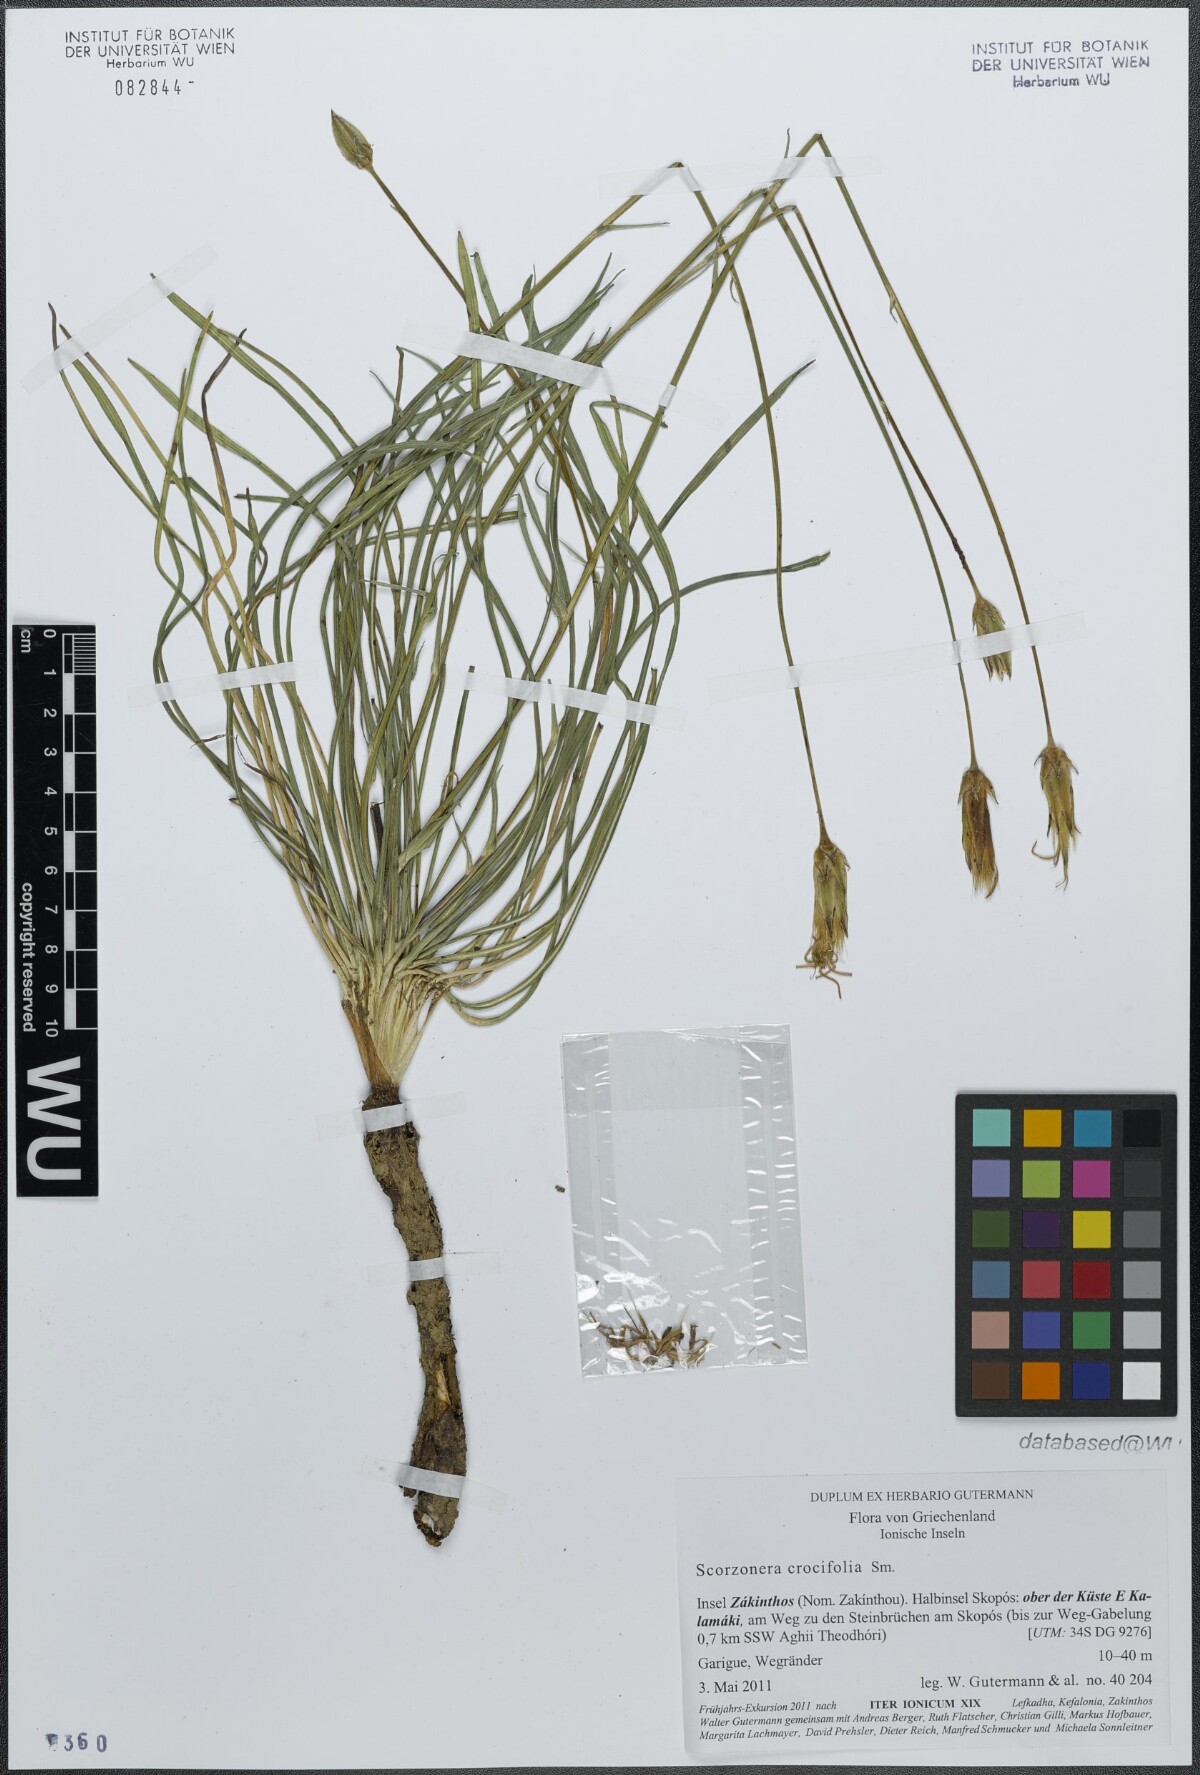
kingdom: Plantae
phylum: Tracheophyta
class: Magnoliopsida
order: Asterales
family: Asteraceae
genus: Pseudopodospermum
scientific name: Pseudopodospermum crocifolium
